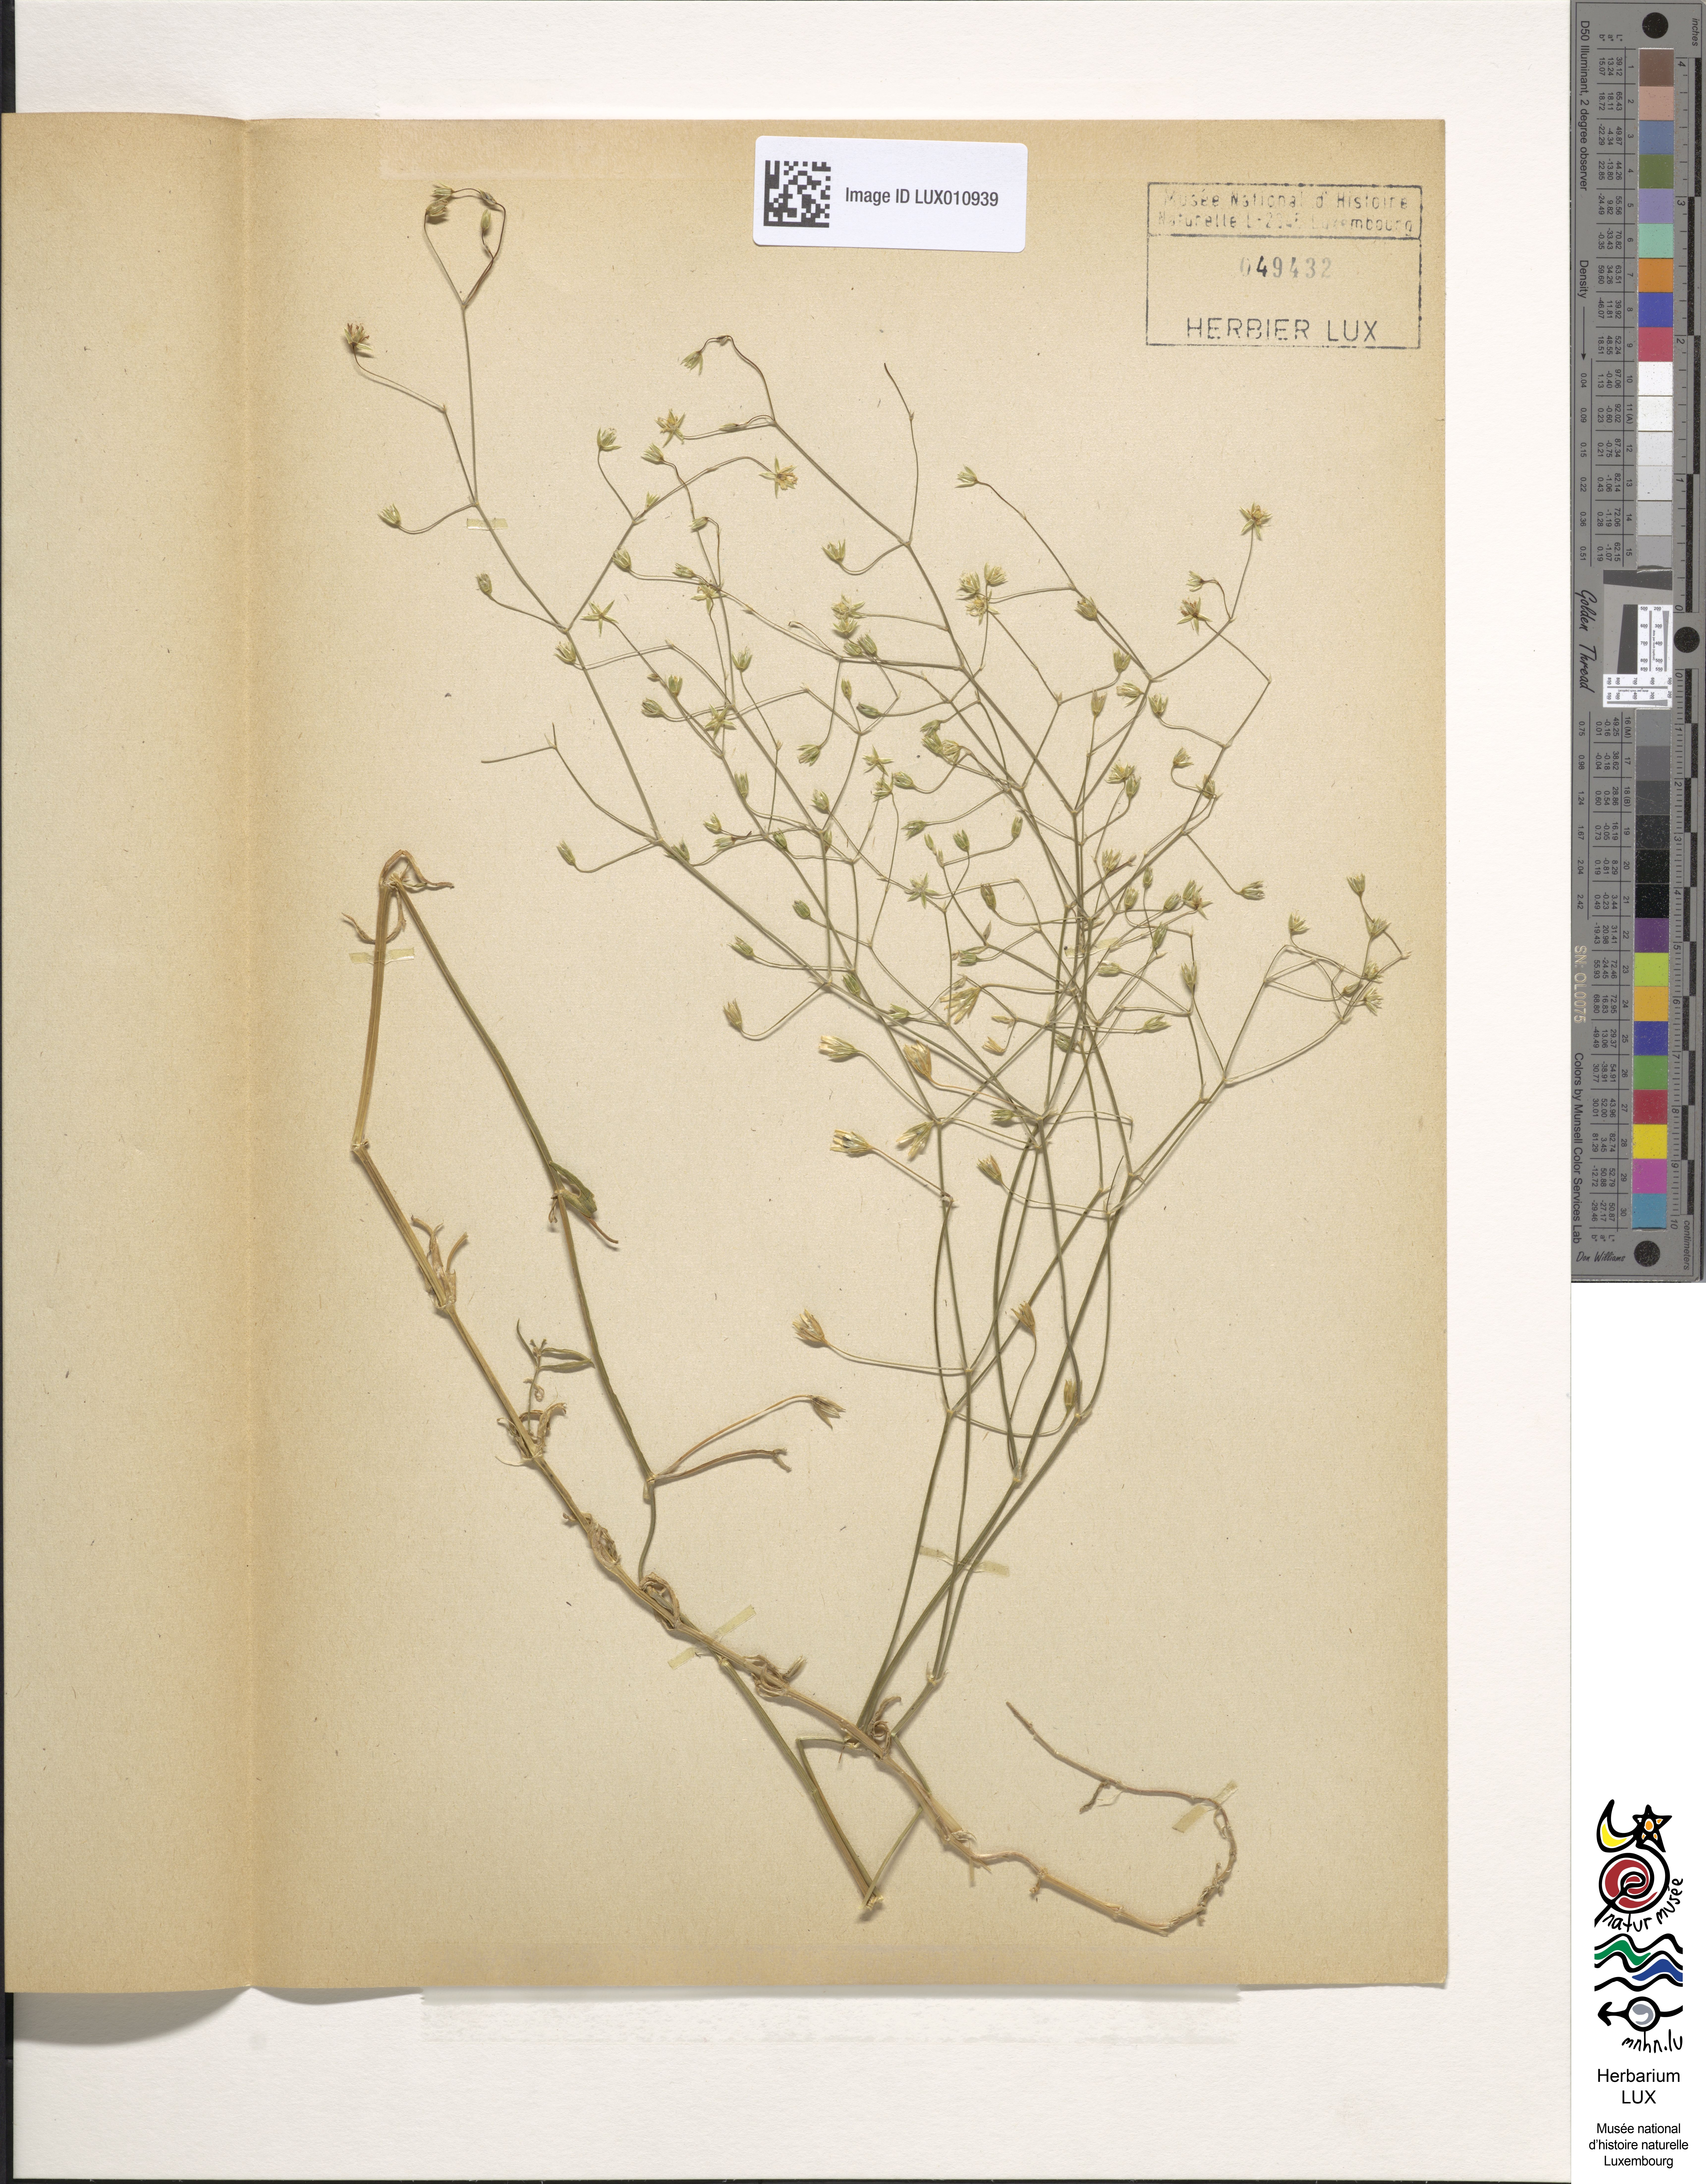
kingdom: Plantae
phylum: Tracheophyta
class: Magnoliopsida
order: Caryophyllales
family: Caryophyllaceae
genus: Stellaria
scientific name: Stellaria graminea
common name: Grass-like starwort
